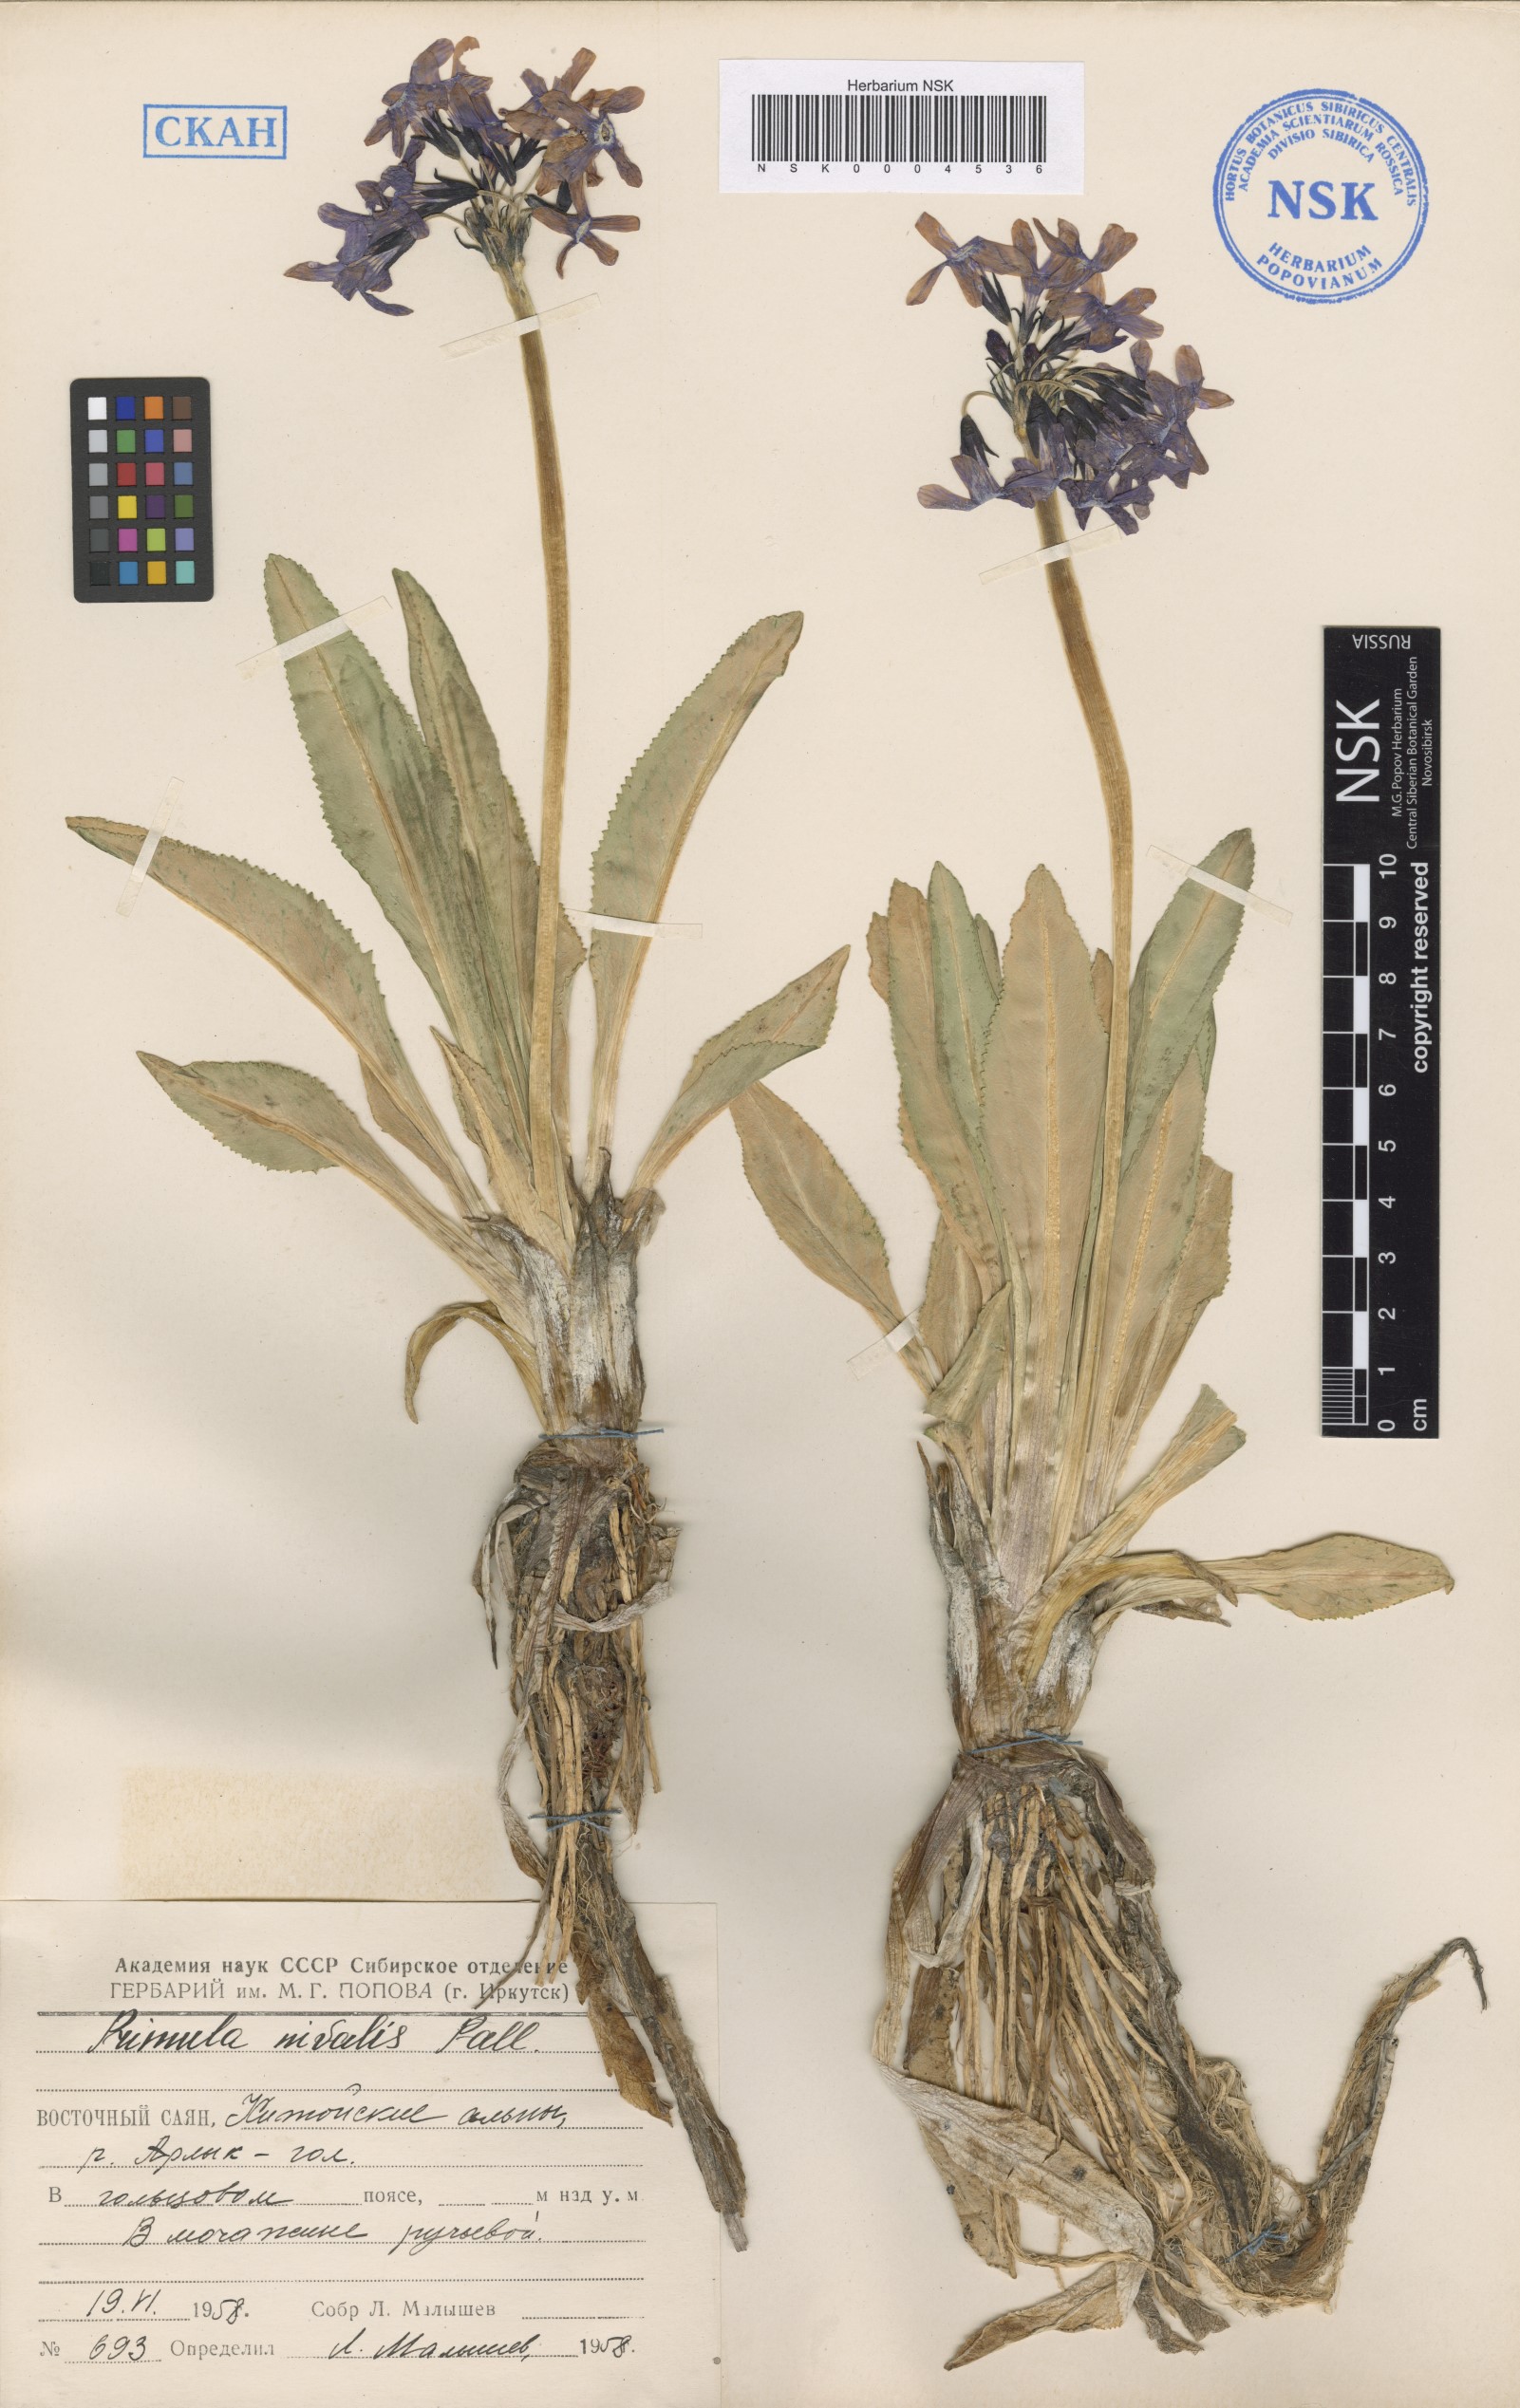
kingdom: Plantae
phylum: Tracheophyta
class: Magnoliopsida
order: Ericales
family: Primulaceae
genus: Primula
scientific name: Primula nivalis
